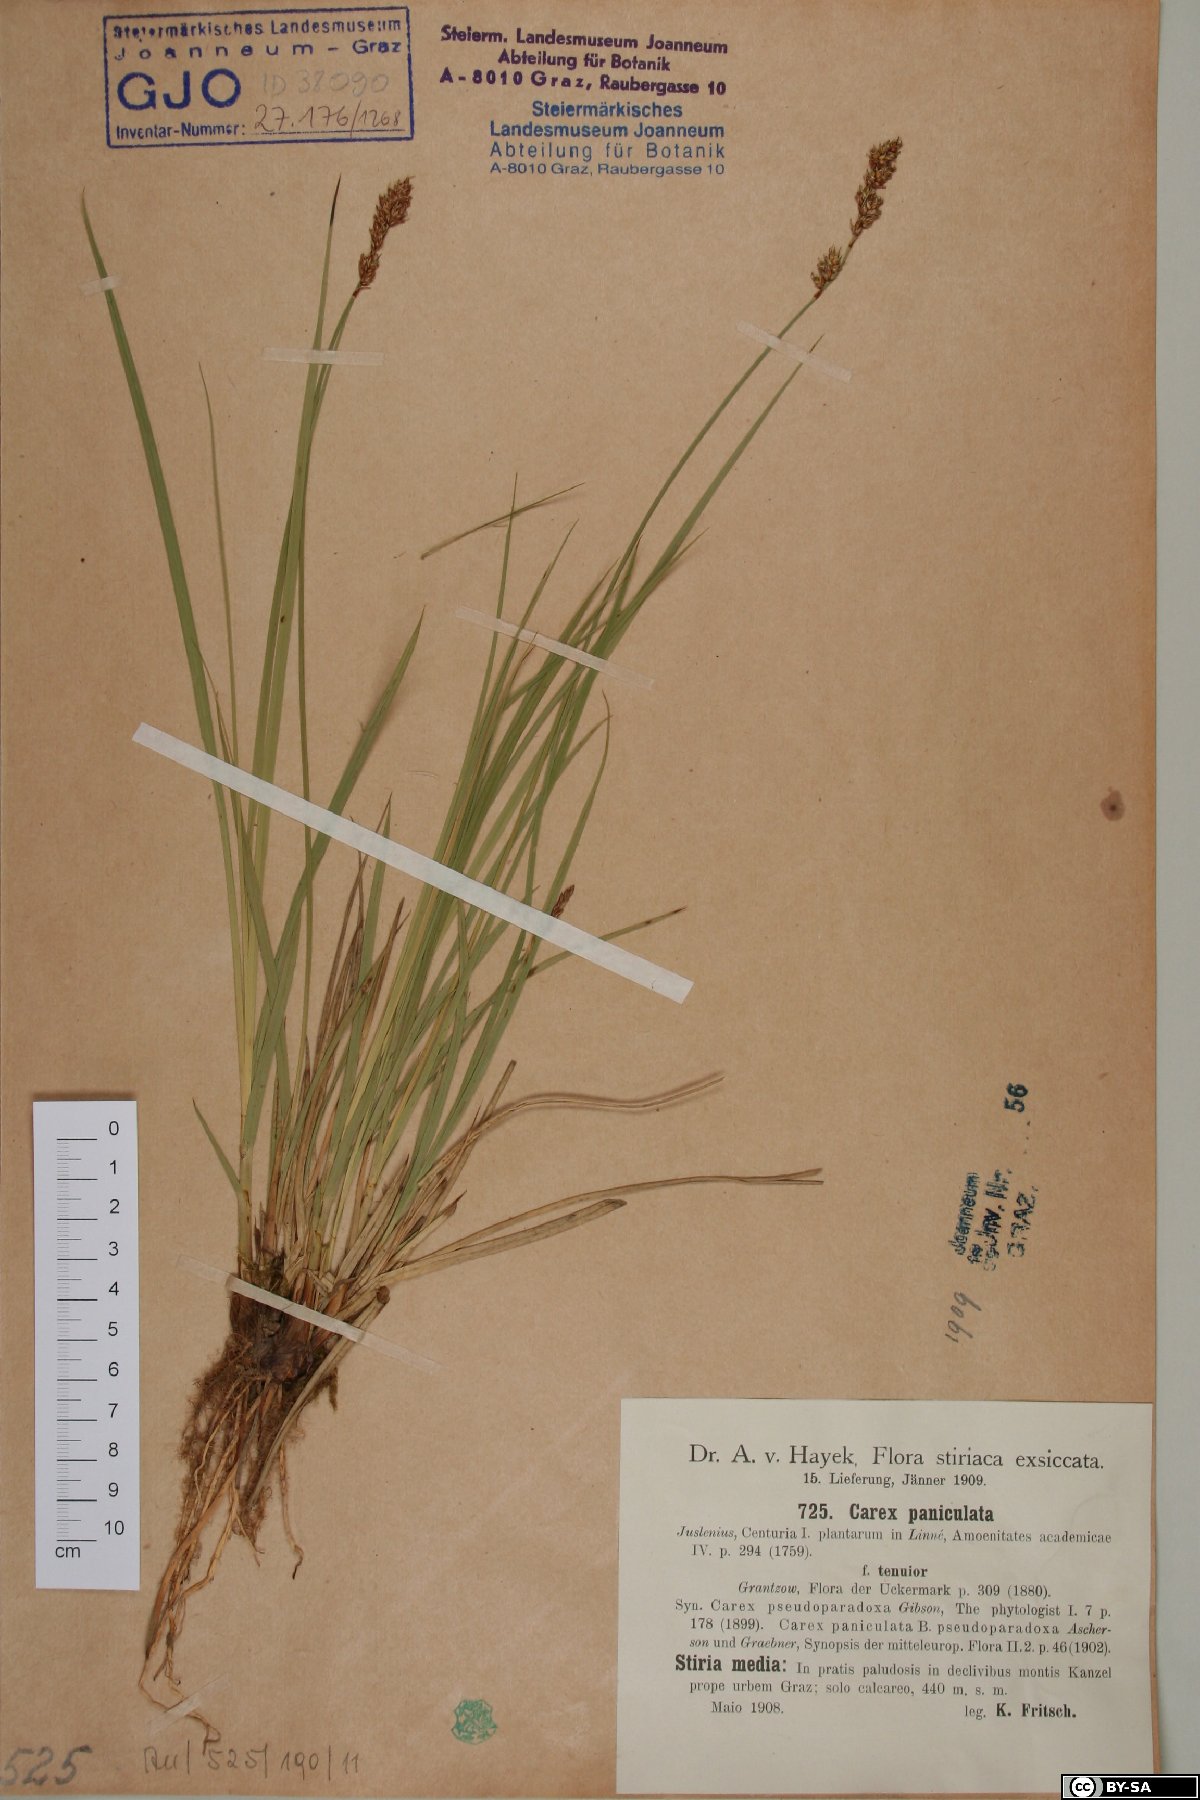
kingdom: Plantae
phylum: Tracheophyta
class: Liliopsida
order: Poales
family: Cyperaceae
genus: Carex
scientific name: Carex paniculata
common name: Greater tussock-sedge
